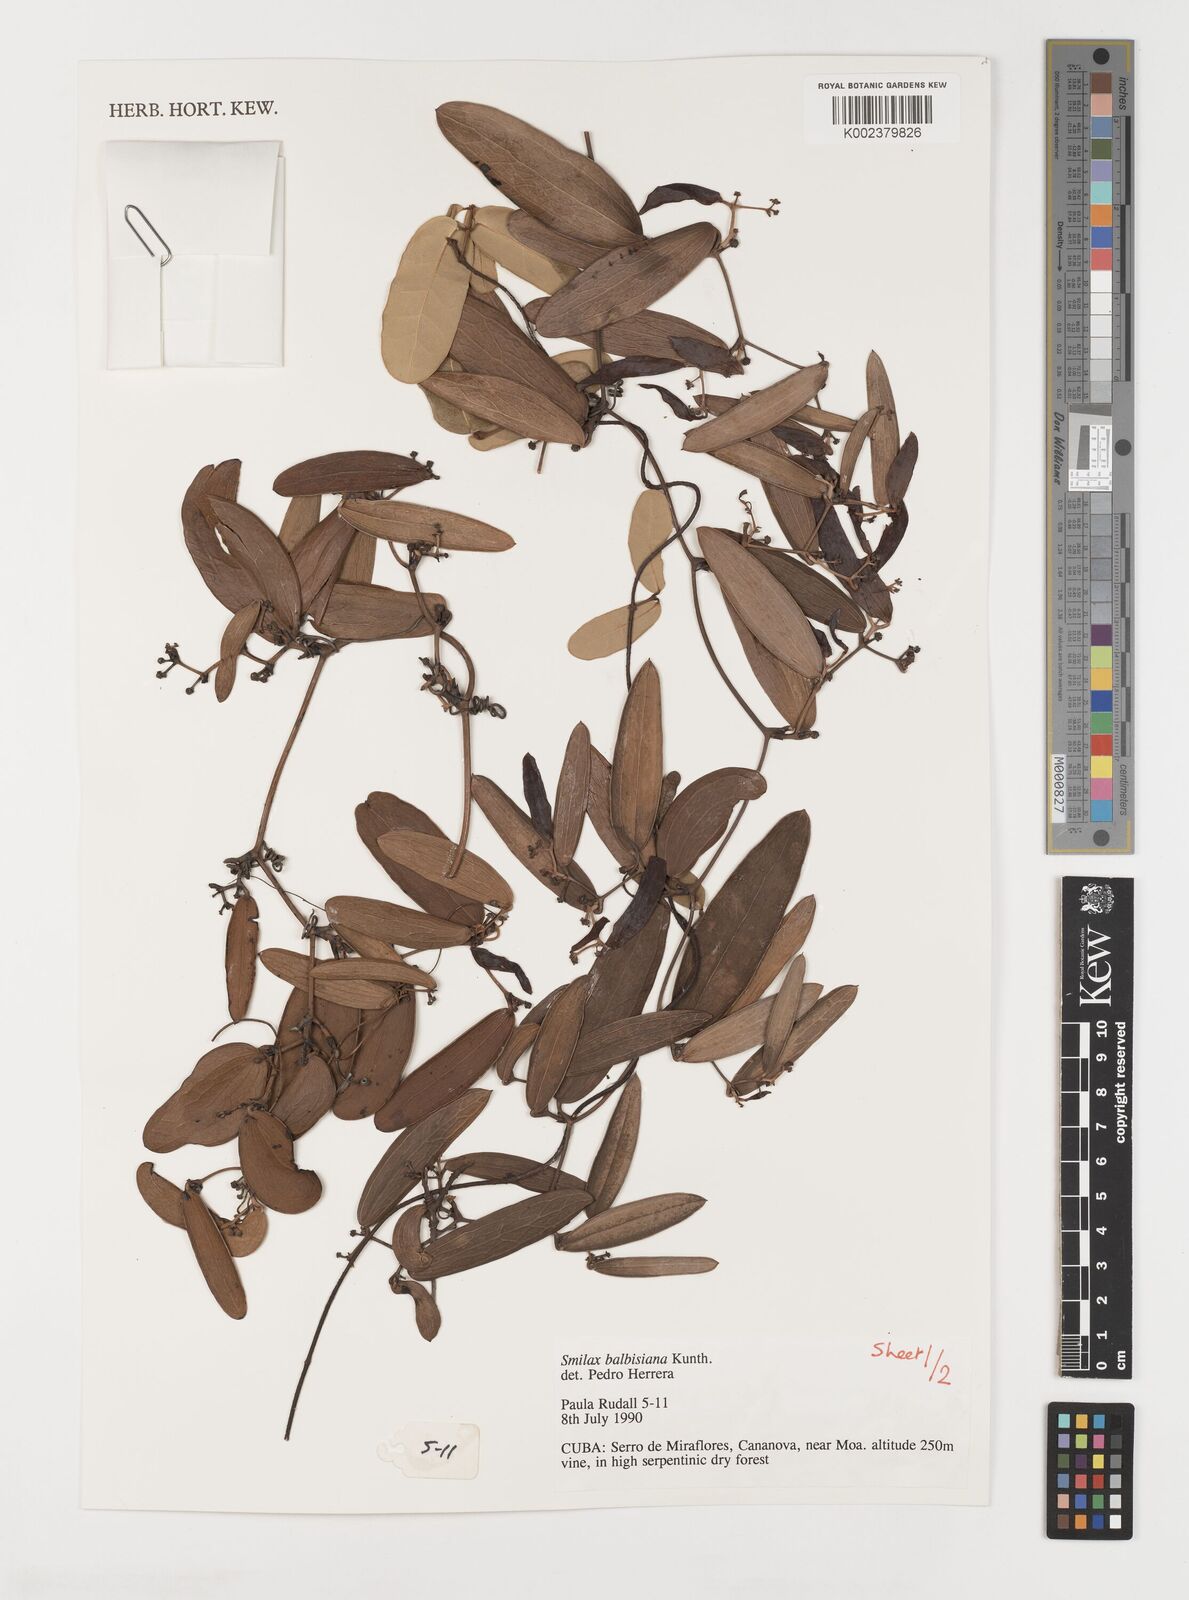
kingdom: Plantae
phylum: Tracheophyta
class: Liliopsida
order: Liliales
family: Smilacaceae
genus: Smilax
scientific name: Smilax domingensis
